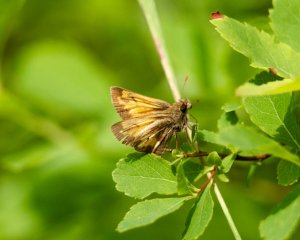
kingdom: Animalia
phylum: Arthropoda
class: Insecta
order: Lepidoptera
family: Hesperiidae
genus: Lon
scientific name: Lon hobomok
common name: Hobomok Skipper
